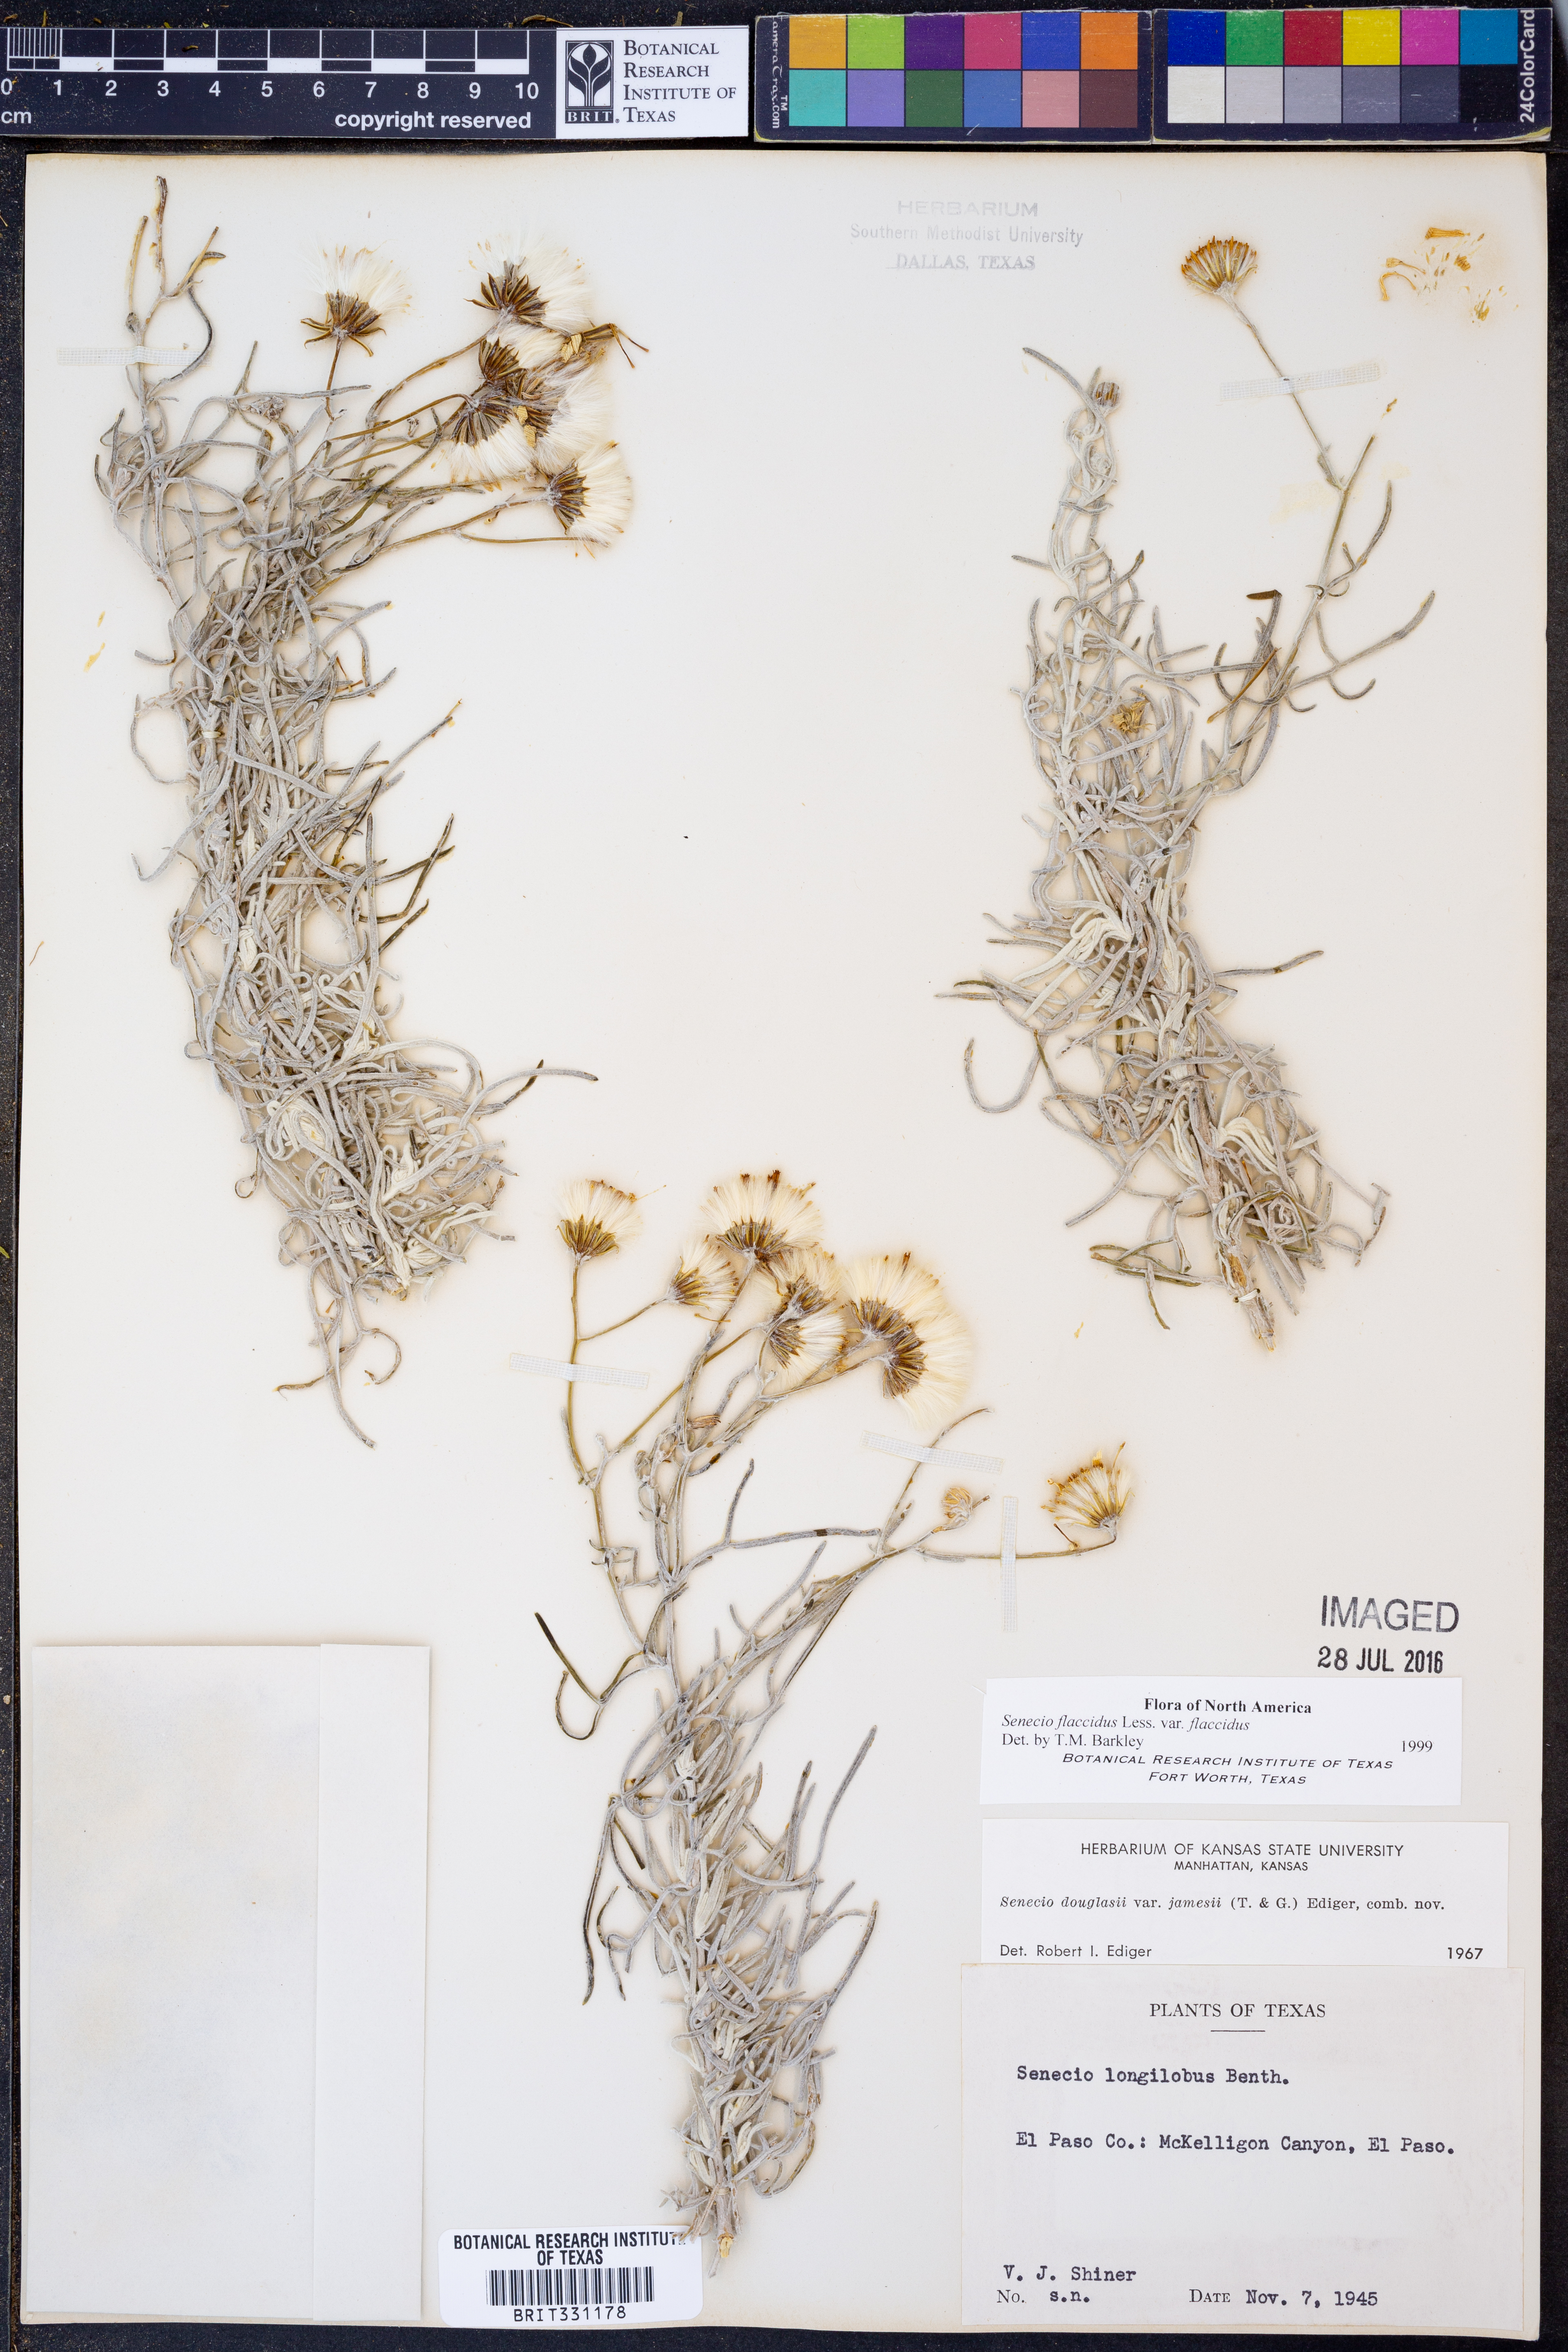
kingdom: Plantae
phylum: Tracheophyta
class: Magnoliopsida
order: Asterales
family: Asteraceae
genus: Senecio
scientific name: Senecio flaccidus
